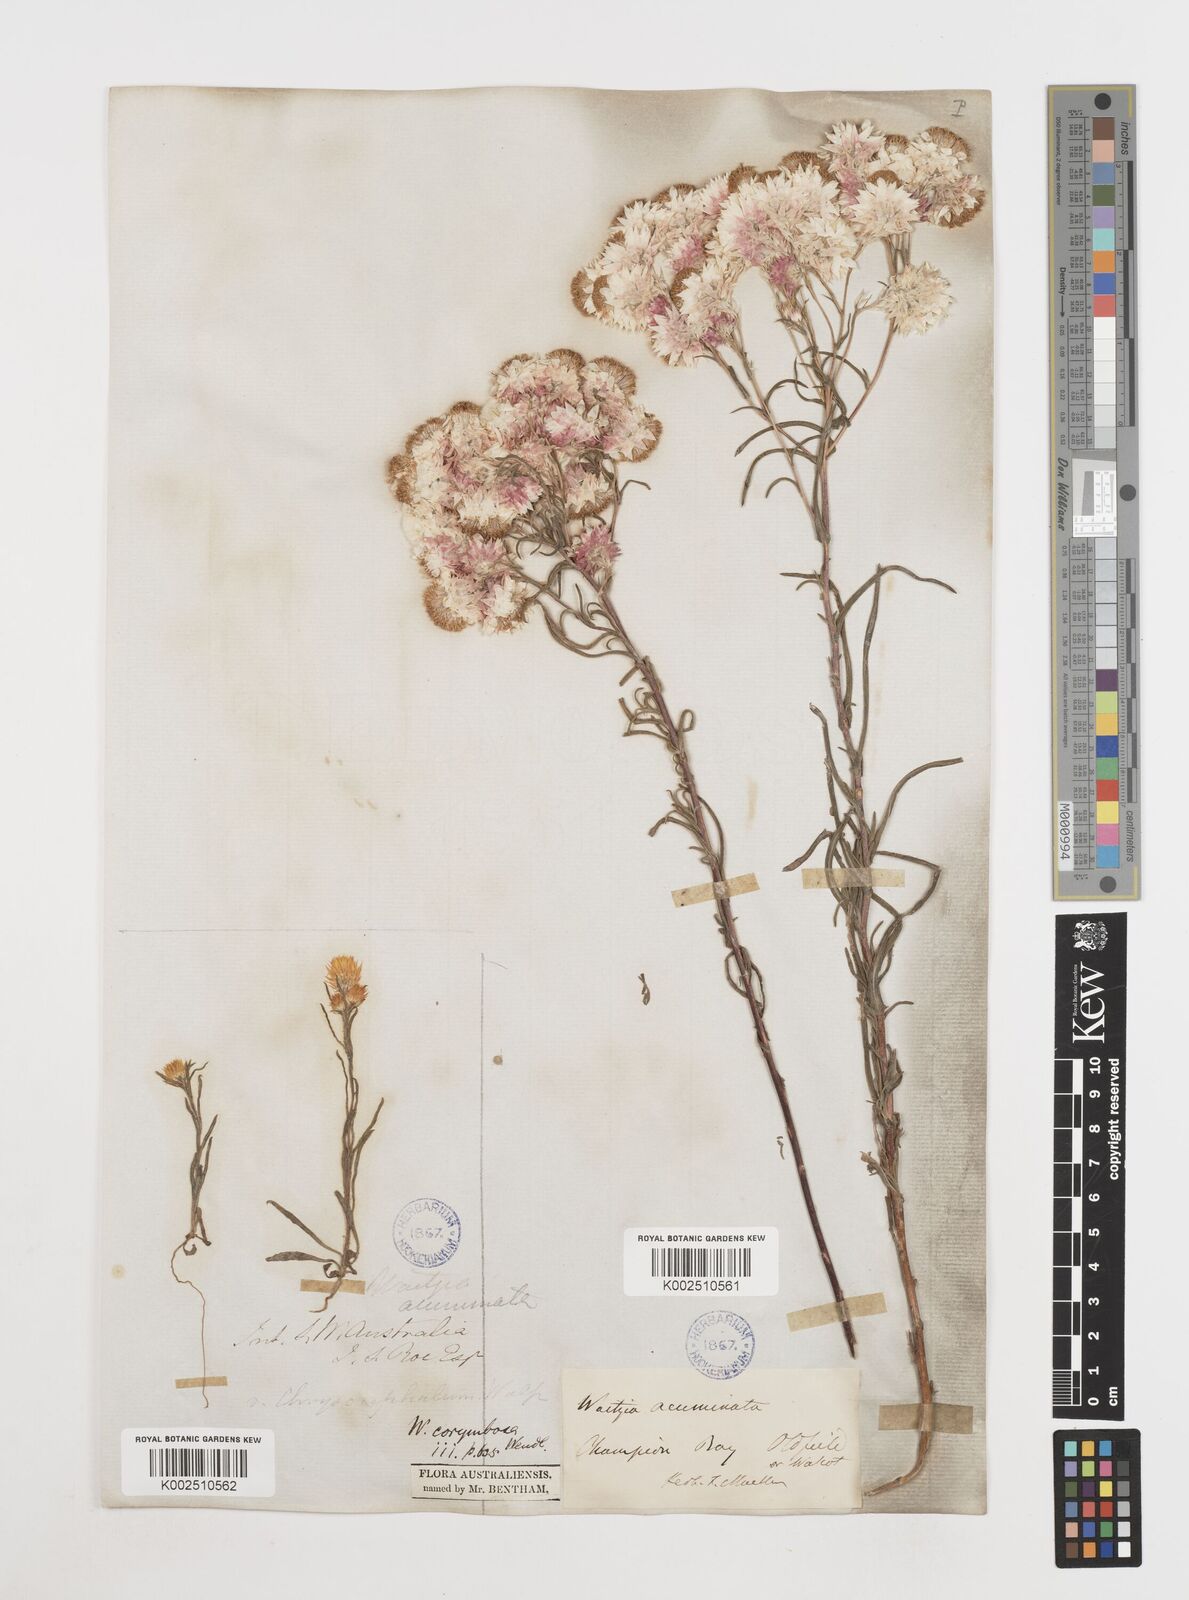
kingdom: Plantae
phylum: Tracheophyta
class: Magnoliopsida
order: Asterales
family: Asteraceae
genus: Waitzia
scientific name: Waitzia acuminata
